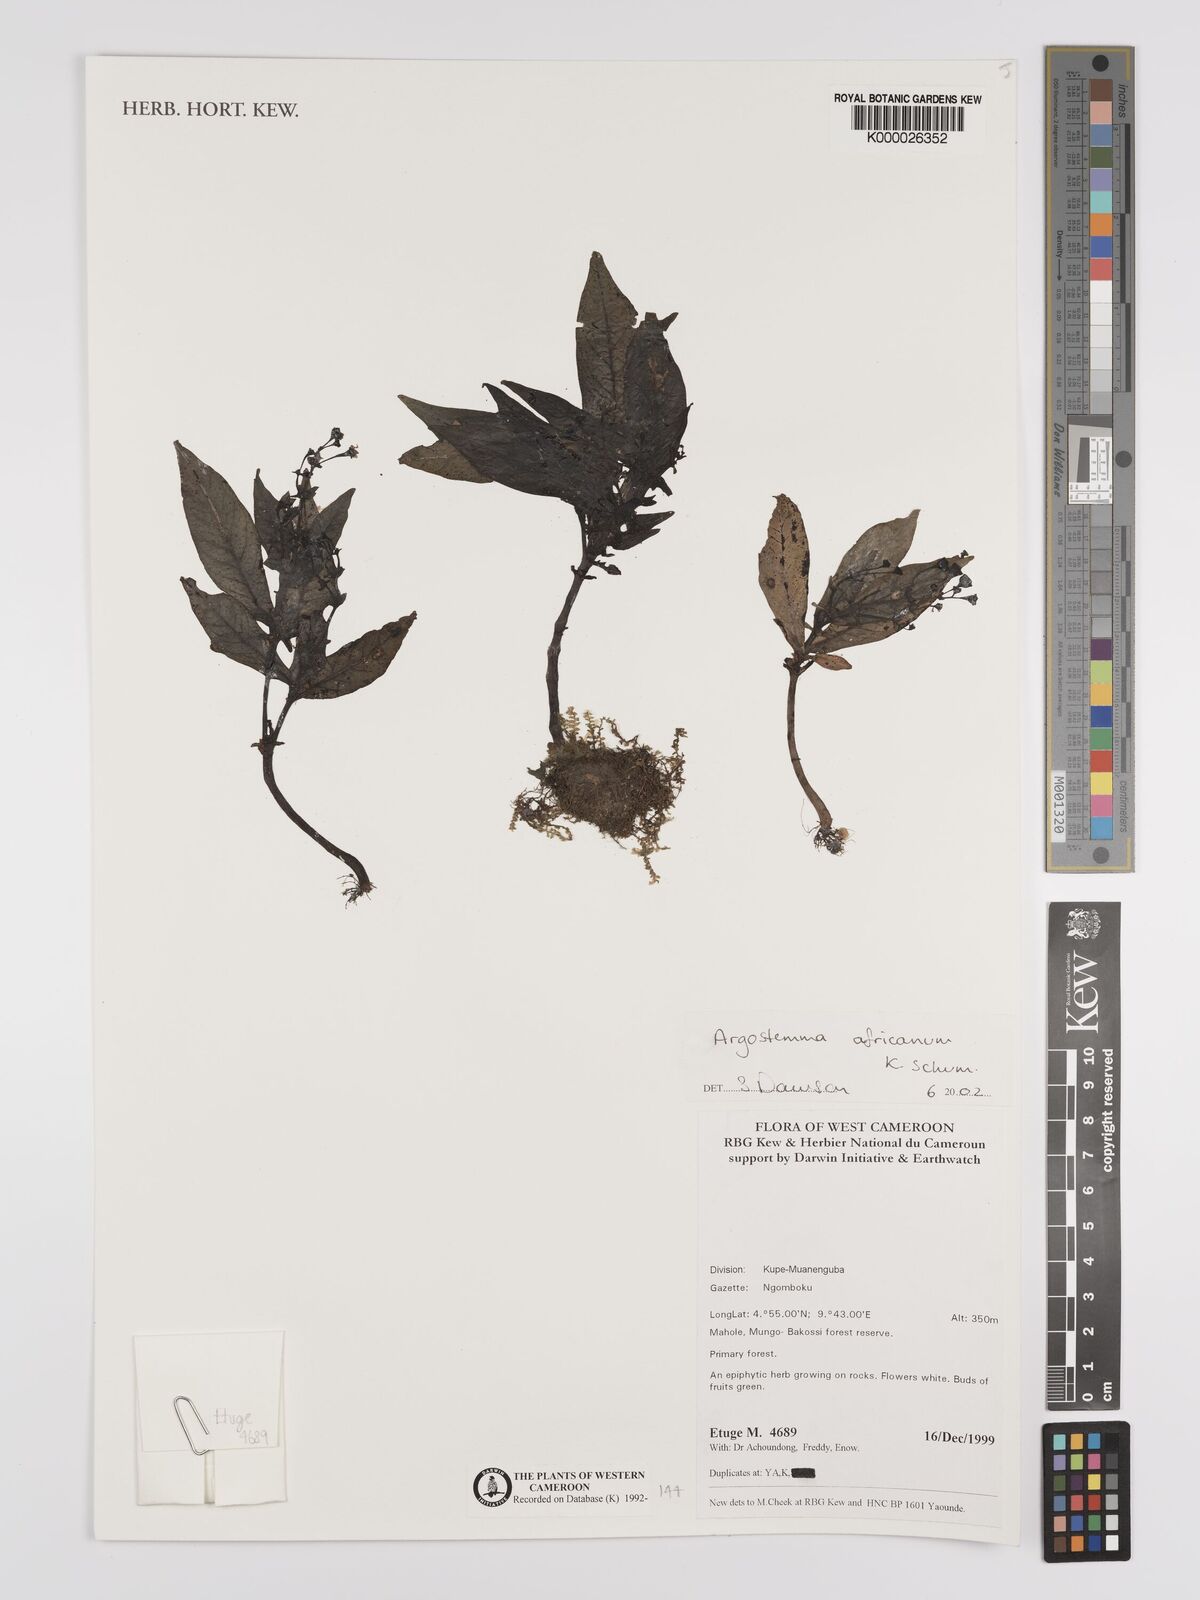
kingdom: Plantae
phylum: Tracheophyta
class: Magnoliopsida
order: Gentianales
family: Rubiaceae
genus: Argostemma
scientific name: Argostemma africanum
